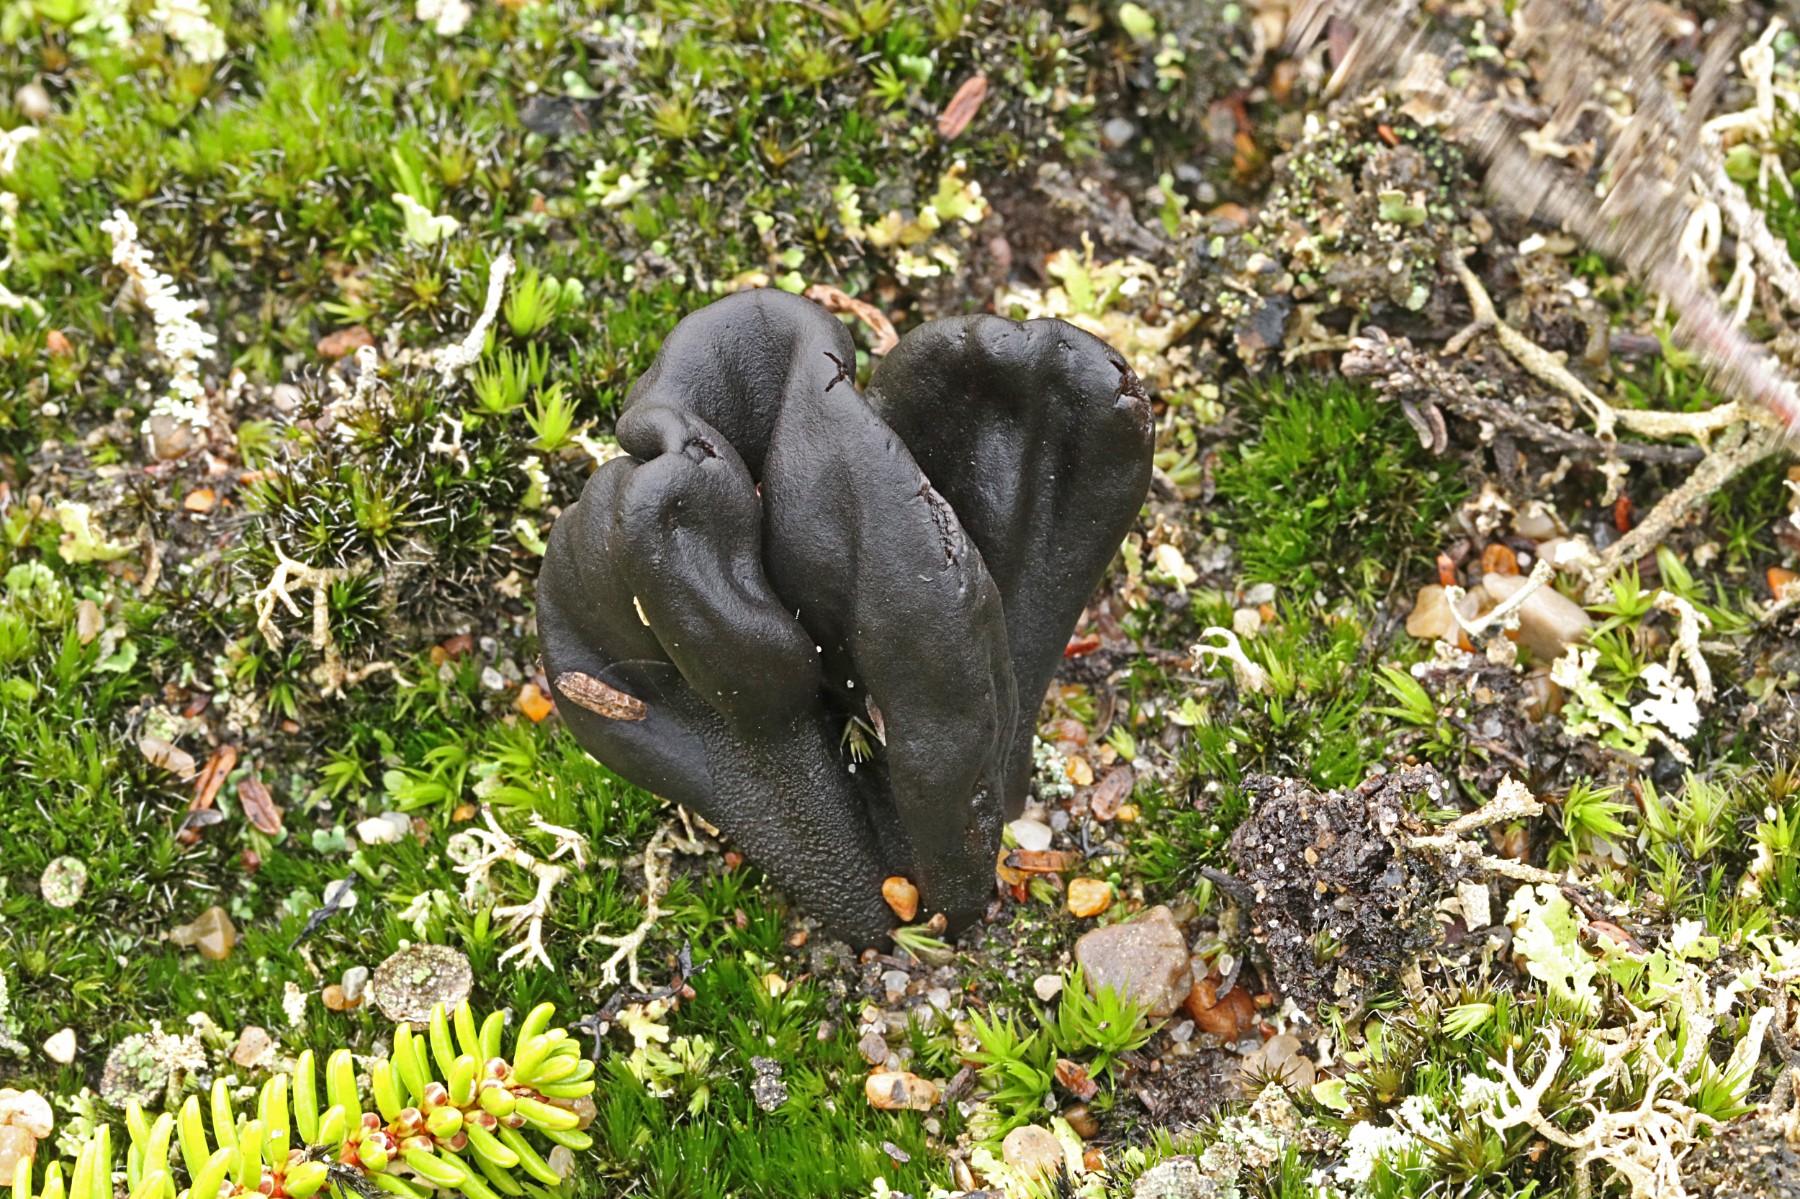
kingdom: Fungi
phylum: Ascomycota
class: Geoglossomycetes
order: Geoglossales
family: Geoglossaceae
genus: Sabuloglossum
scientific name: Sabuloglossum arenarium
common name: klit-jordtunge
